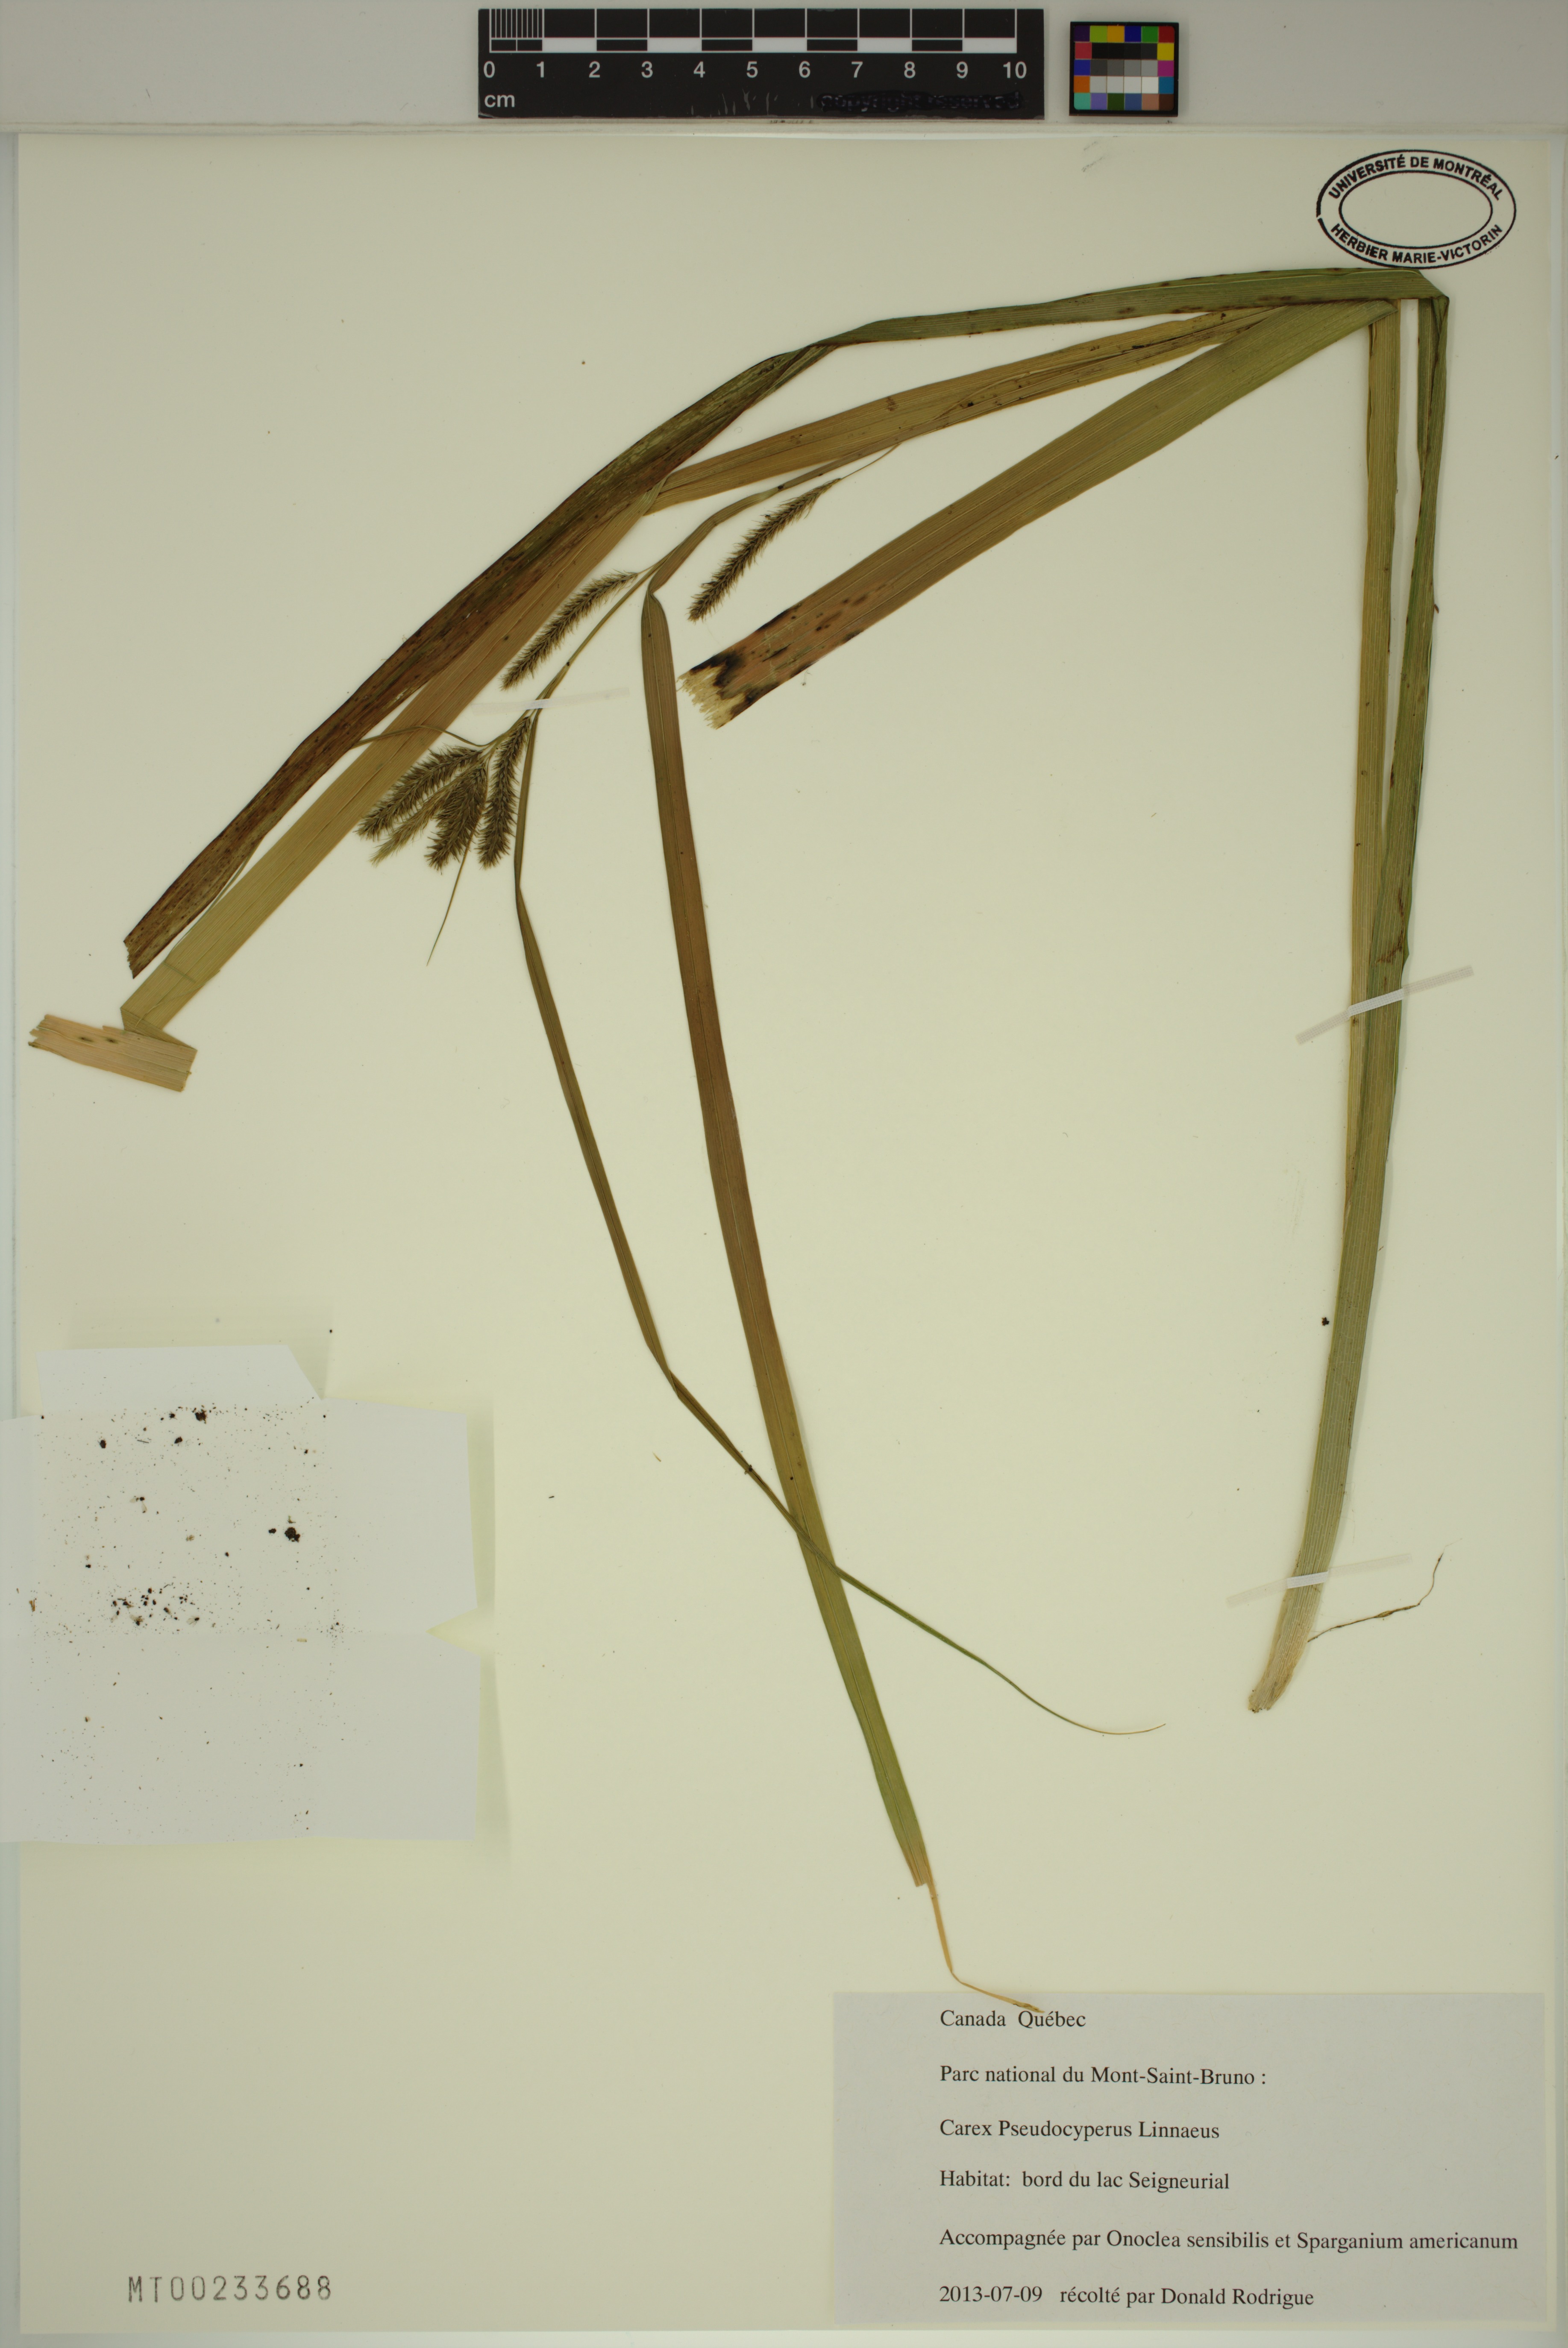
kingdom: Plantae
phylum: Tracheophyta
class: Liliopsida
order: Poales
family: Cyperaceae
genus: Carex
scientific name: Carex pseudocyperus
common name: Cyperus sedge
